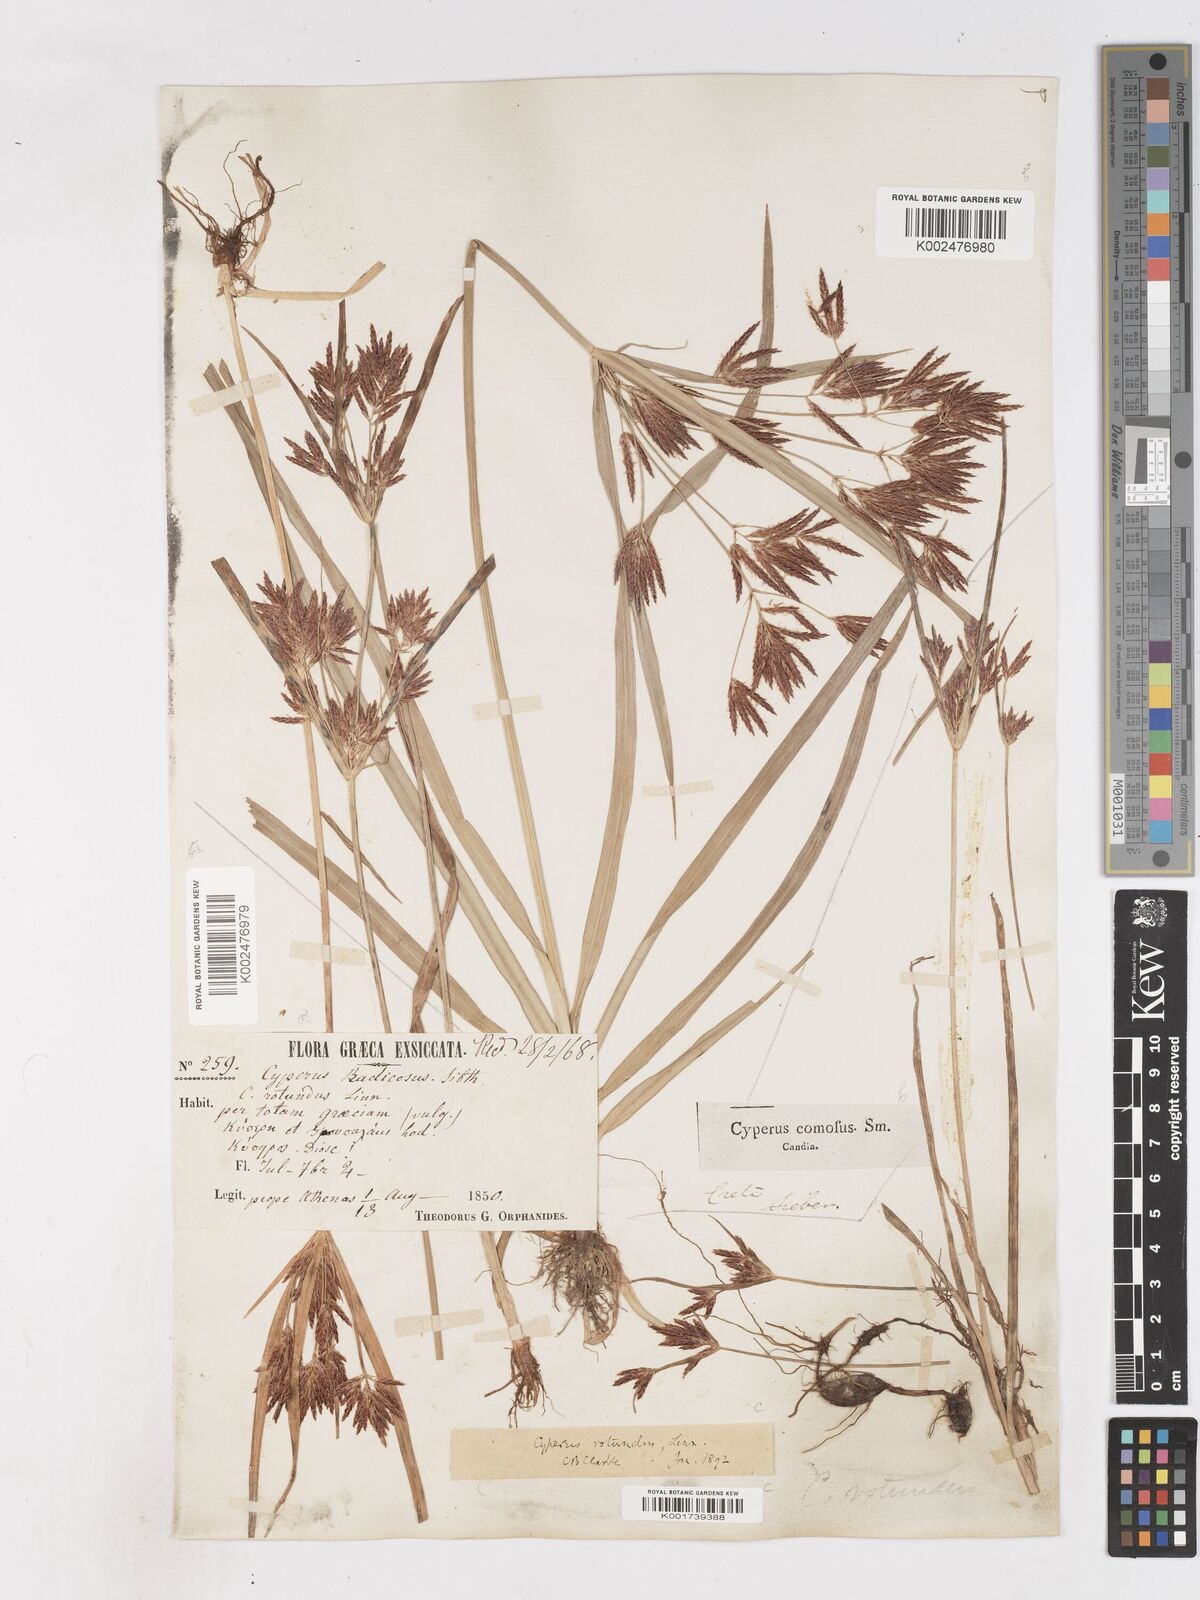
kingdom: Plantae
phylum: Tracheophyta
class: Liliopsida
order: Poales
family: Cyperaceae
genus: Cyperus
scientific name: Cyperus rotundus
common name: Nutgrass
